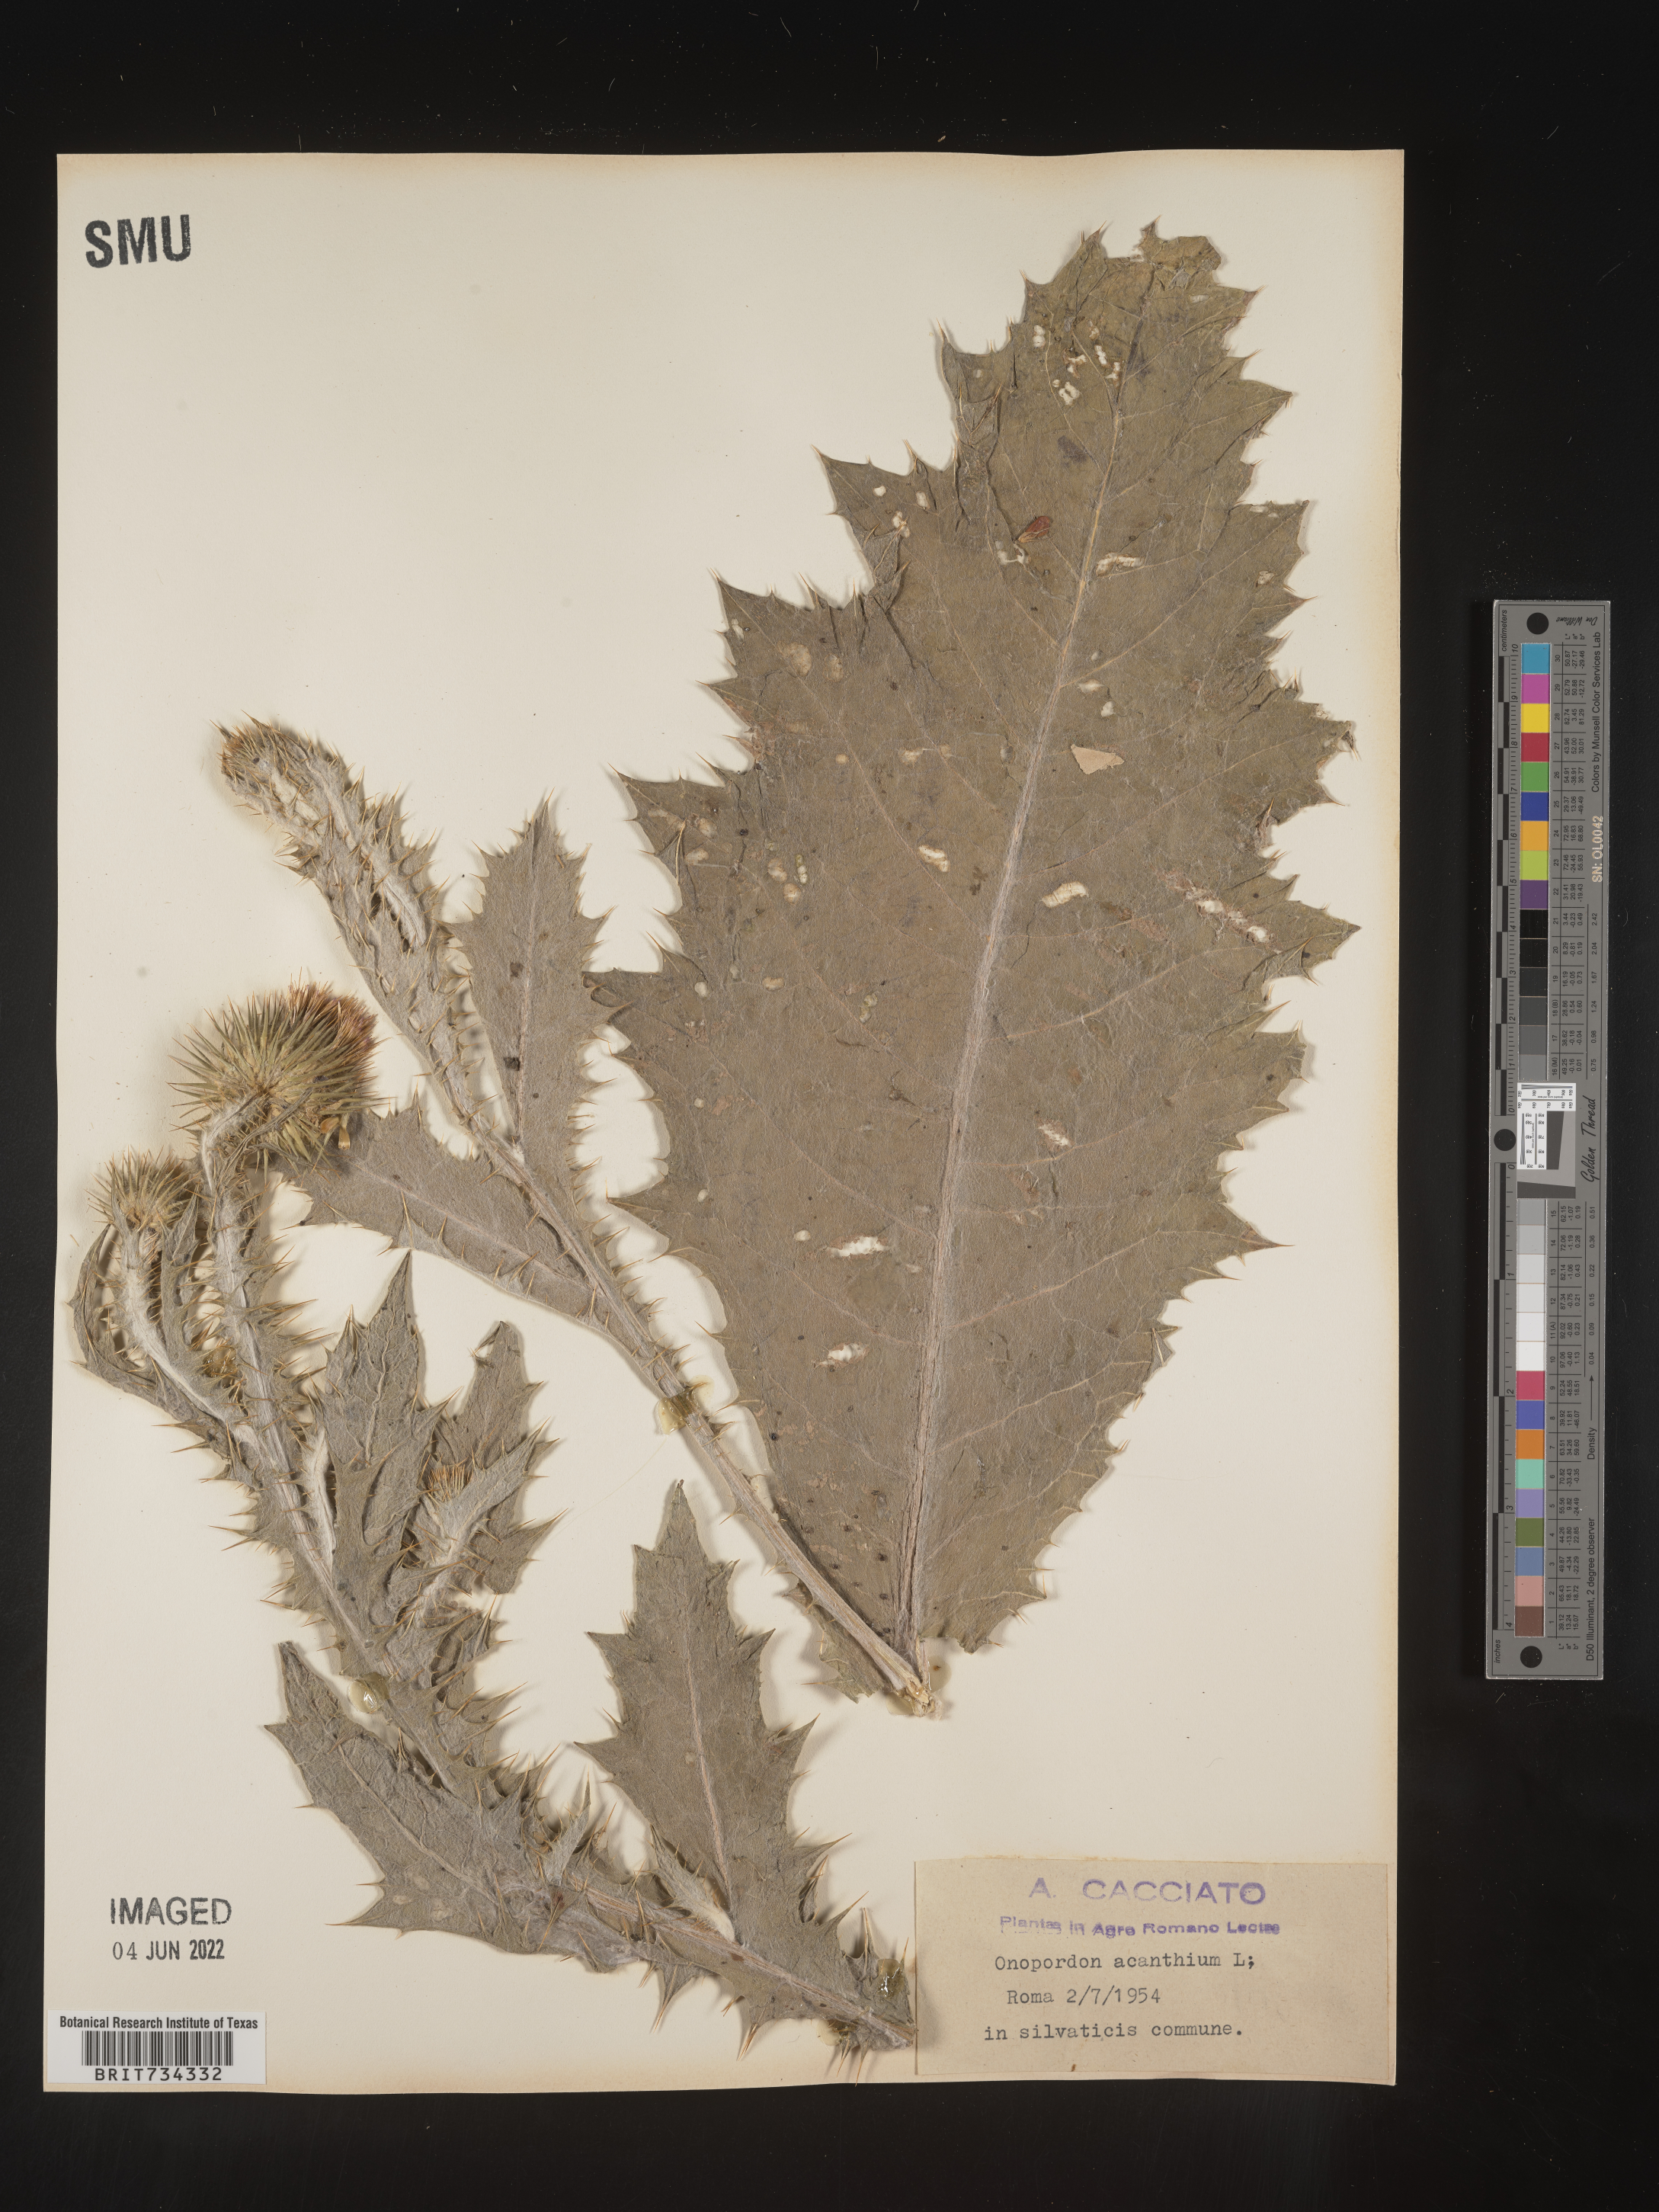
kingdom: Plantae
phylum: Tracheophyta
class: Magnoliopsida
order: Asterales
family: Asteraceae
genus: Onopordum
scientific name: Onopordum
